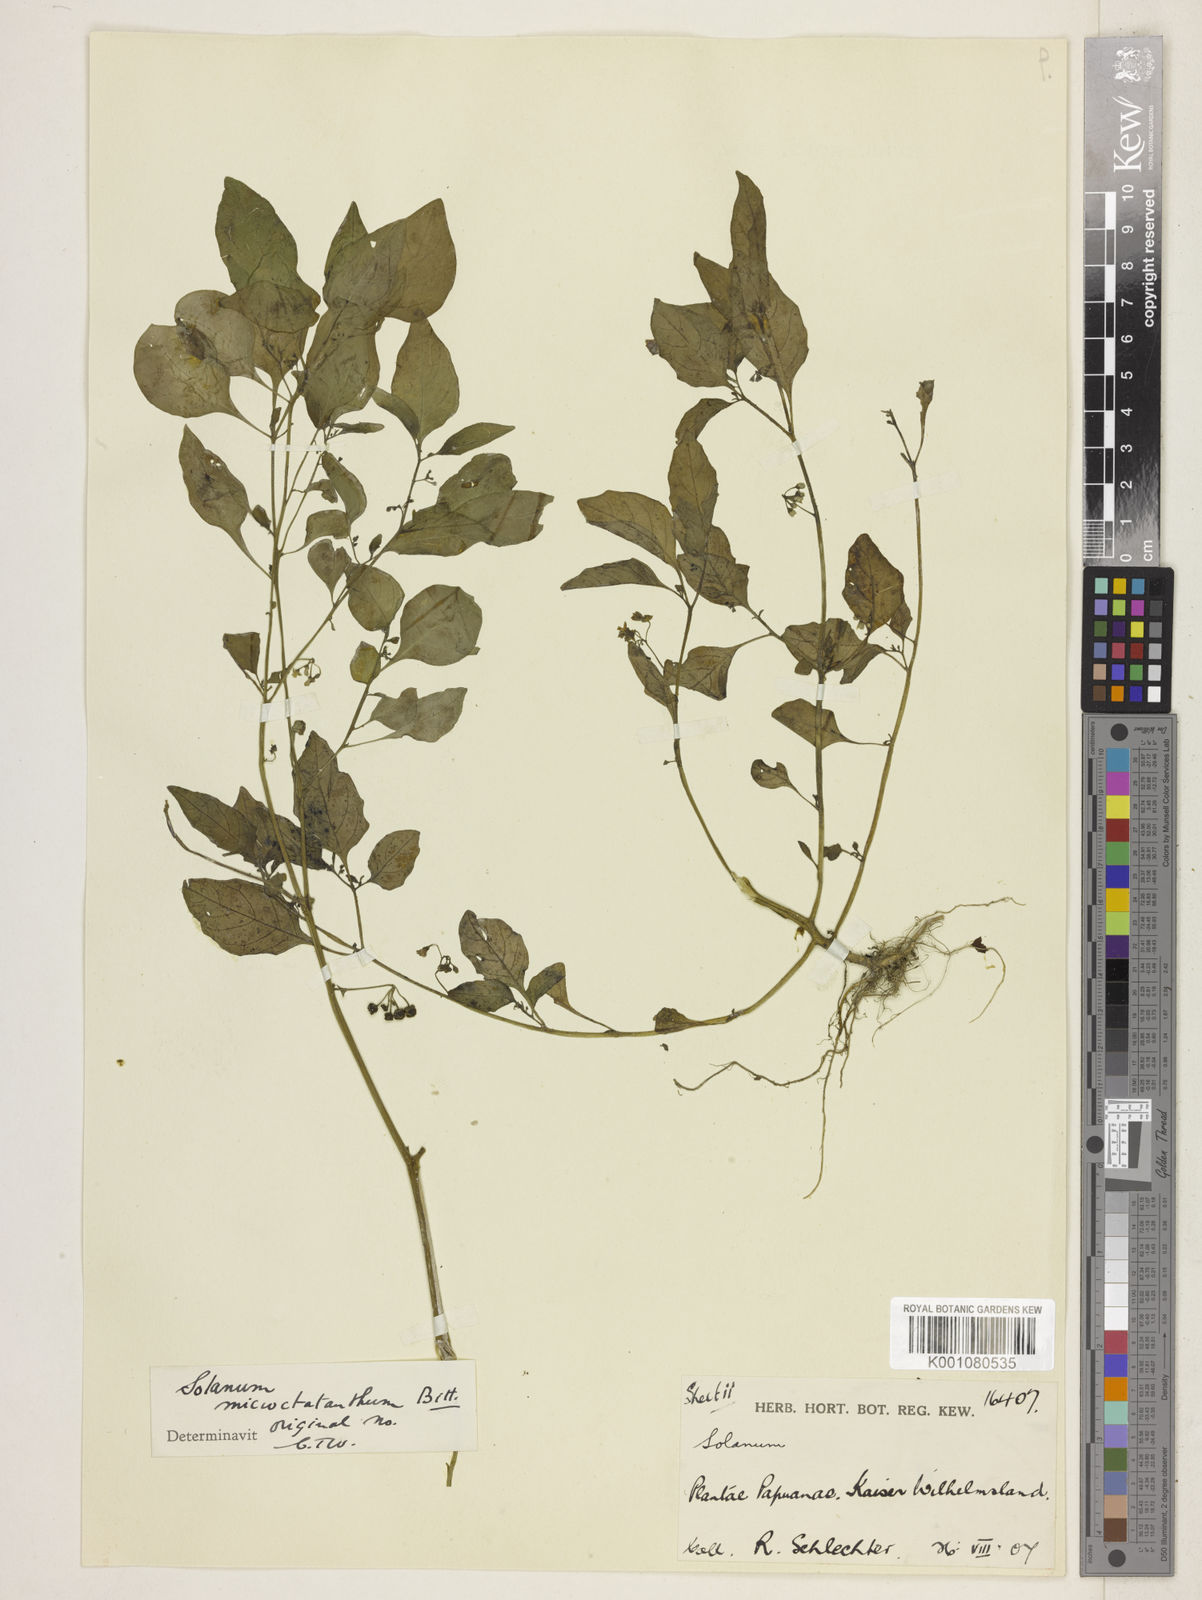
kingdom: Plantae
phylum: Tracheophyta
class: Magnoliopsida
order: Solanales
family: Solanaceae
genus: Solanum
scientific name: Solanum
